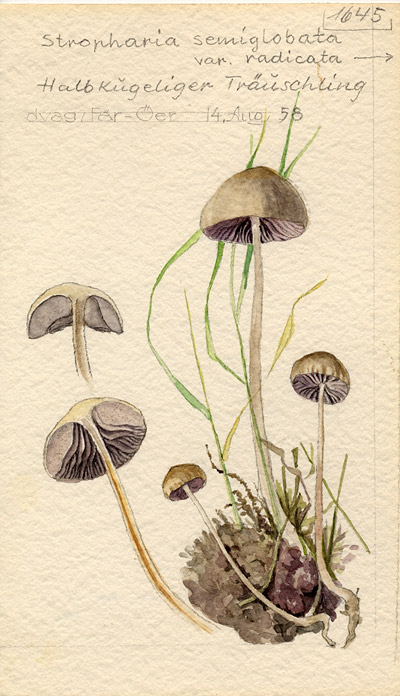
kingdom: Fungi
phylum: Basidiomycota
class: Agaricomycetes
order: Agaricales
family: Strophariaceae
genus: Protostropharia
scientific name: Protostropharia semiglobata
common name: Dung roundhead
